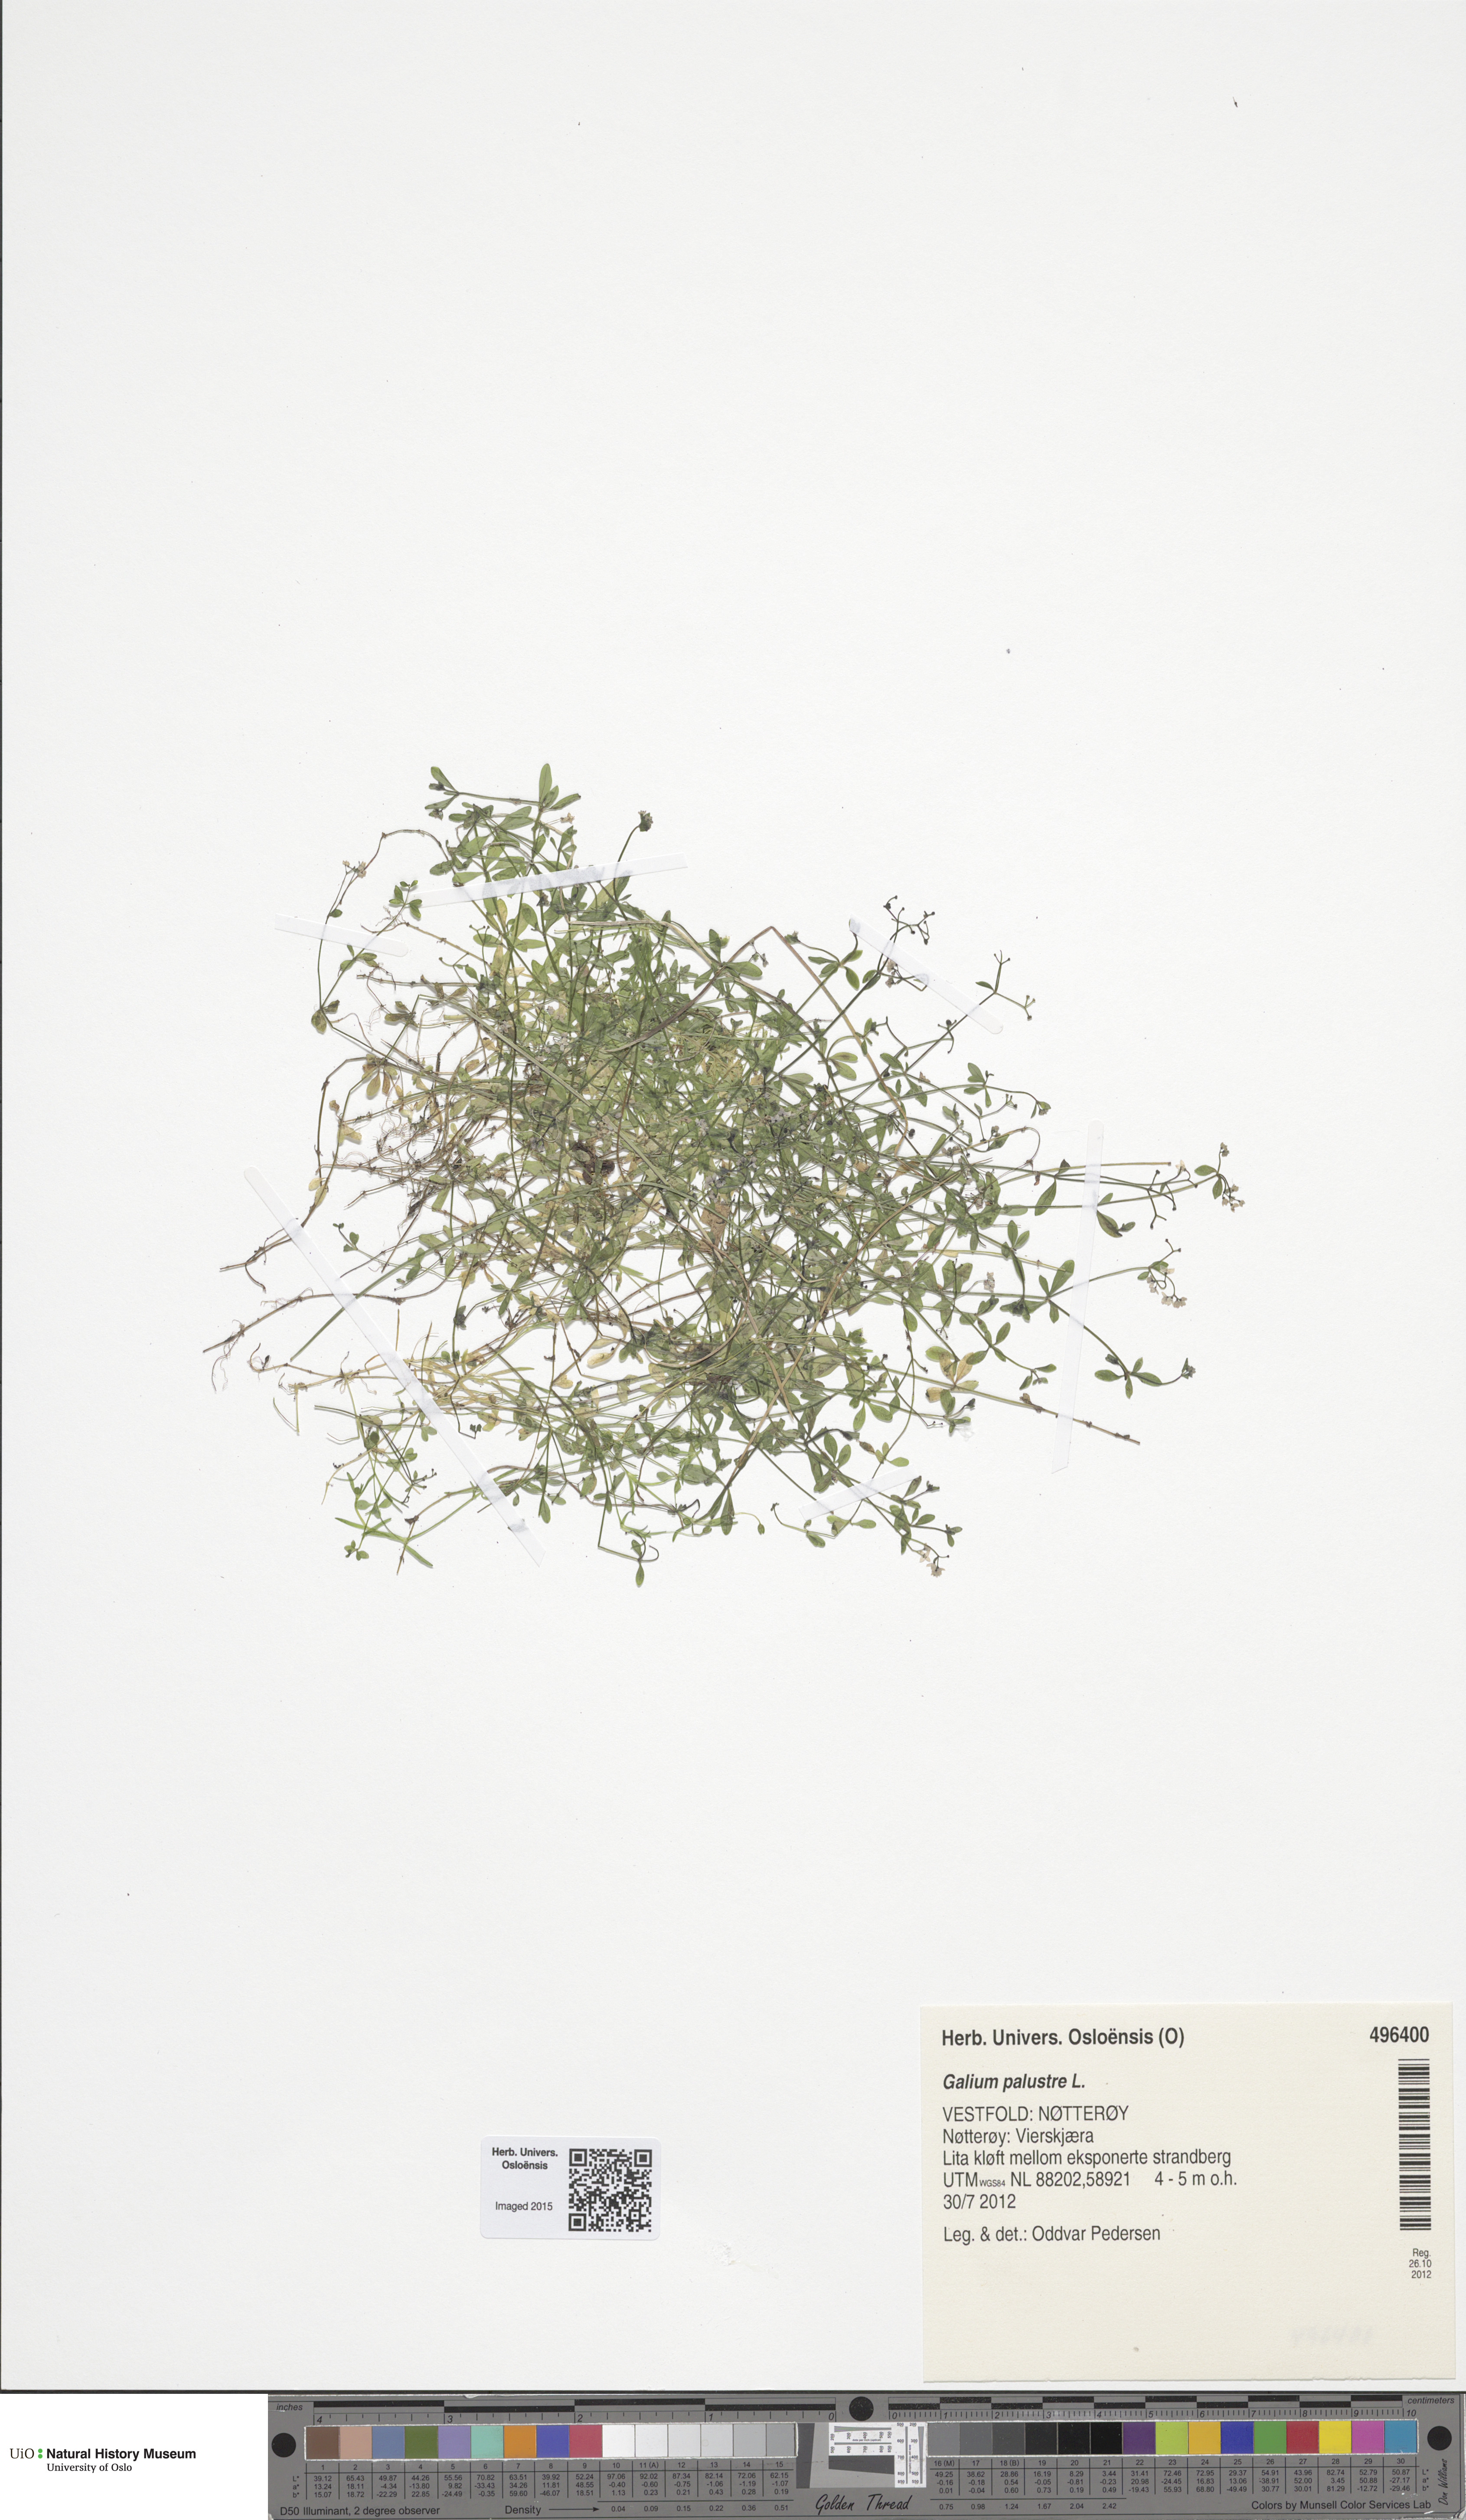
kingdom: Plantae
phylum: Tracheophyta
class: Magnoliopsida
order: Gentianales
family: Rubiaceae
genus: Galium
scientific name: Galium palustre
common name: Common marsh-bedstraw
